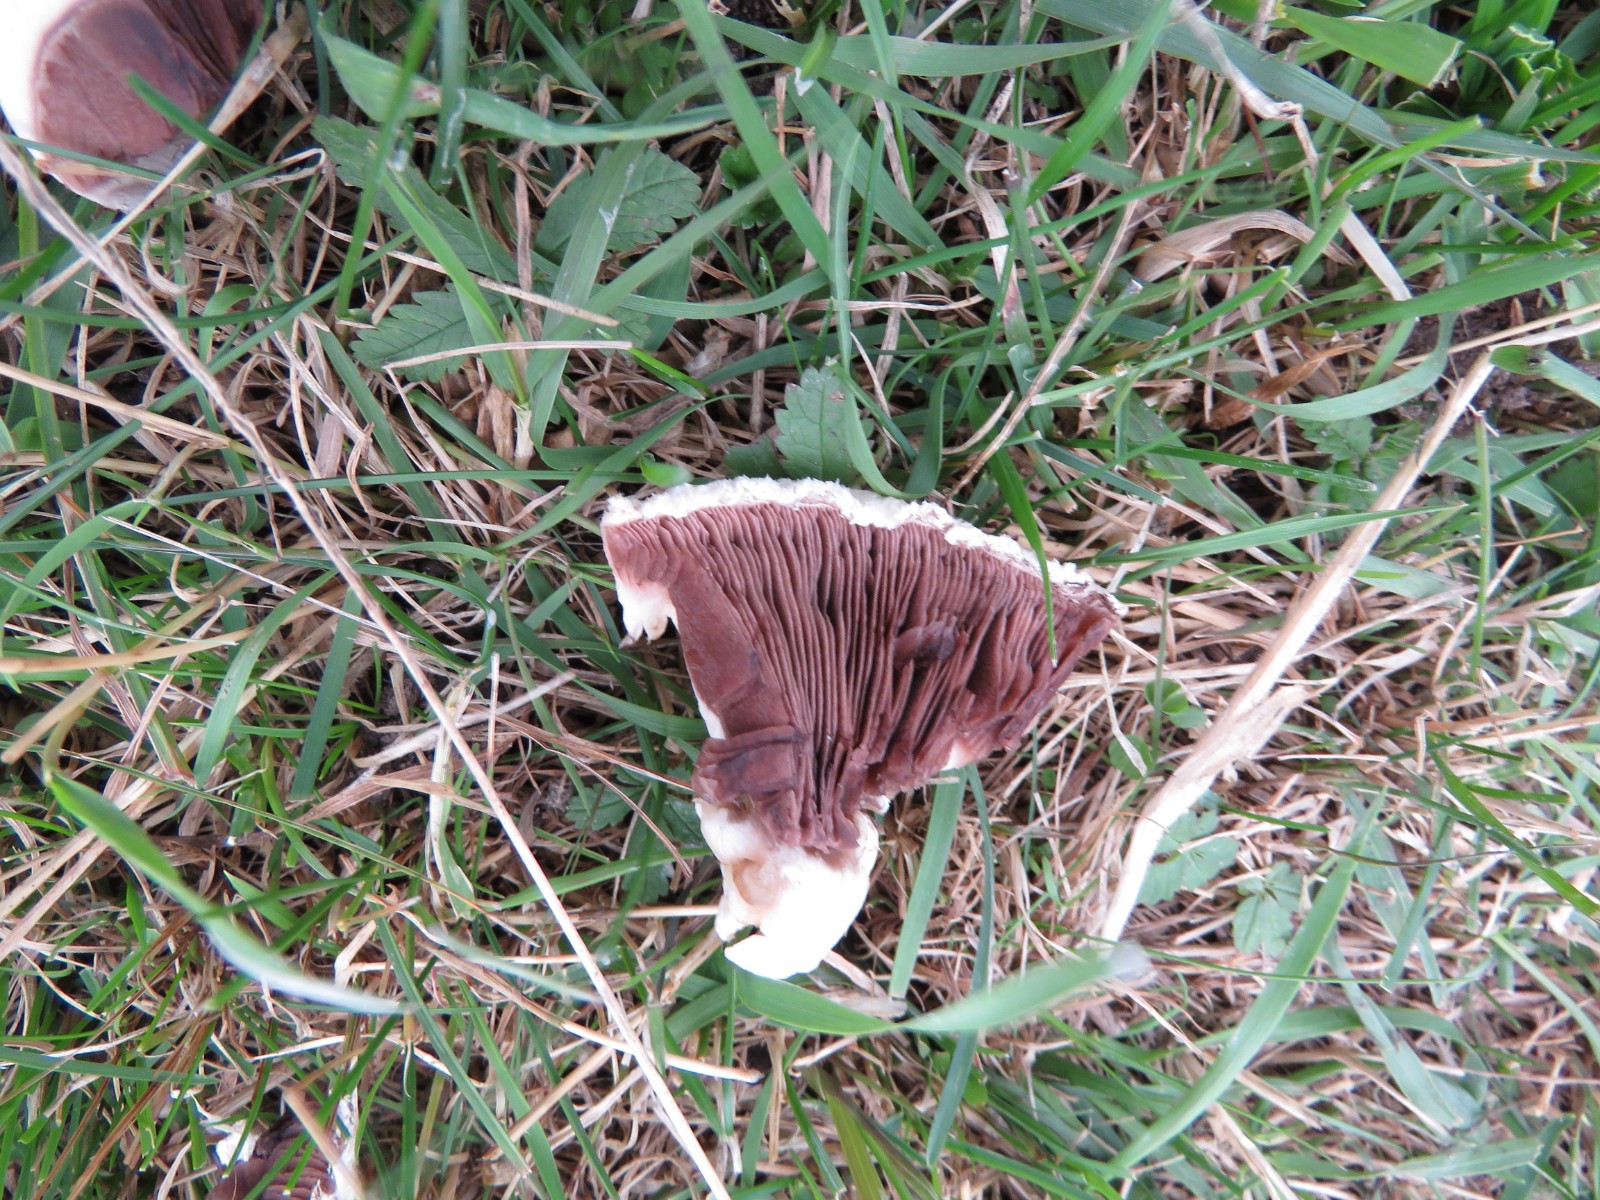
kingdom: Fungi
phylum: Basidiomycota
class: Agaricomycetes
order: Agaricales
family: Agaricaceae
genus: Agaricus
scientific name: Agaricus
